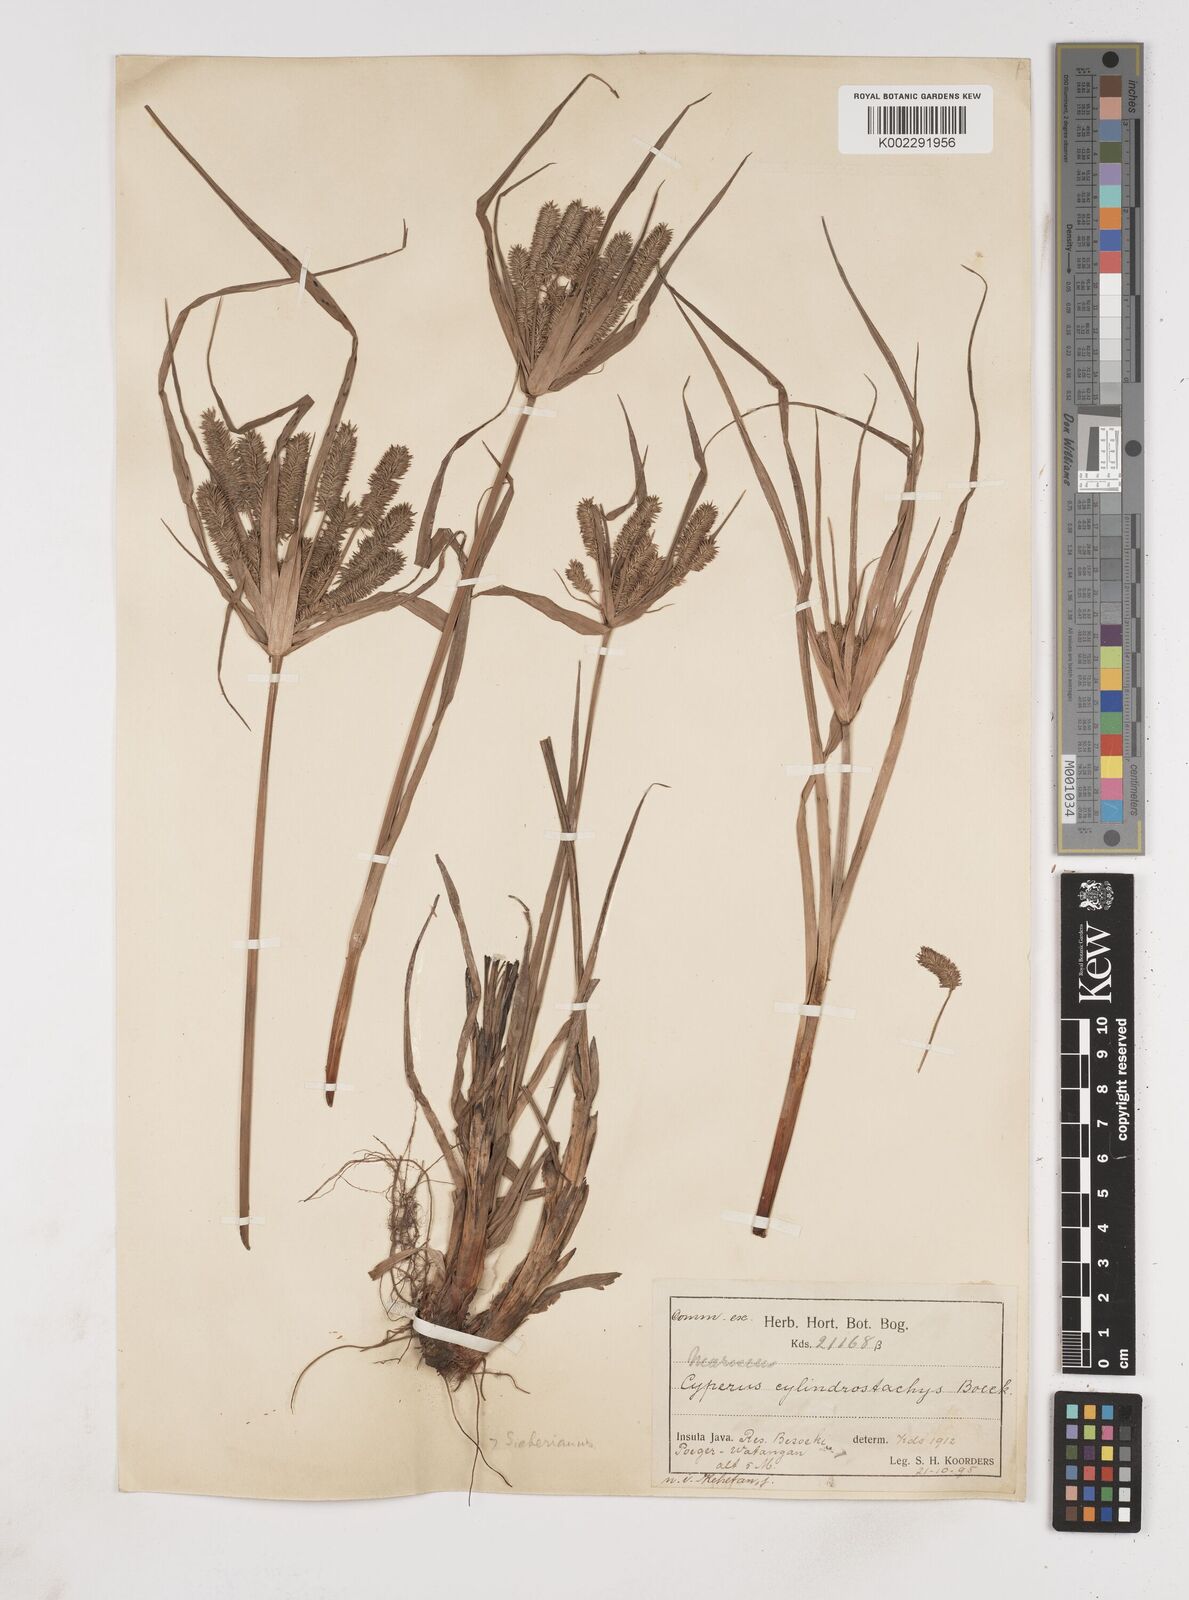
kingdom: Plantae
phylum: Tracheophyta
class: Liliopsida
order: Poales
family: Cyperaceae
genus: Cyperus
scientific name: Cyperus cyperoides
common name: Pacific island flat sedge
